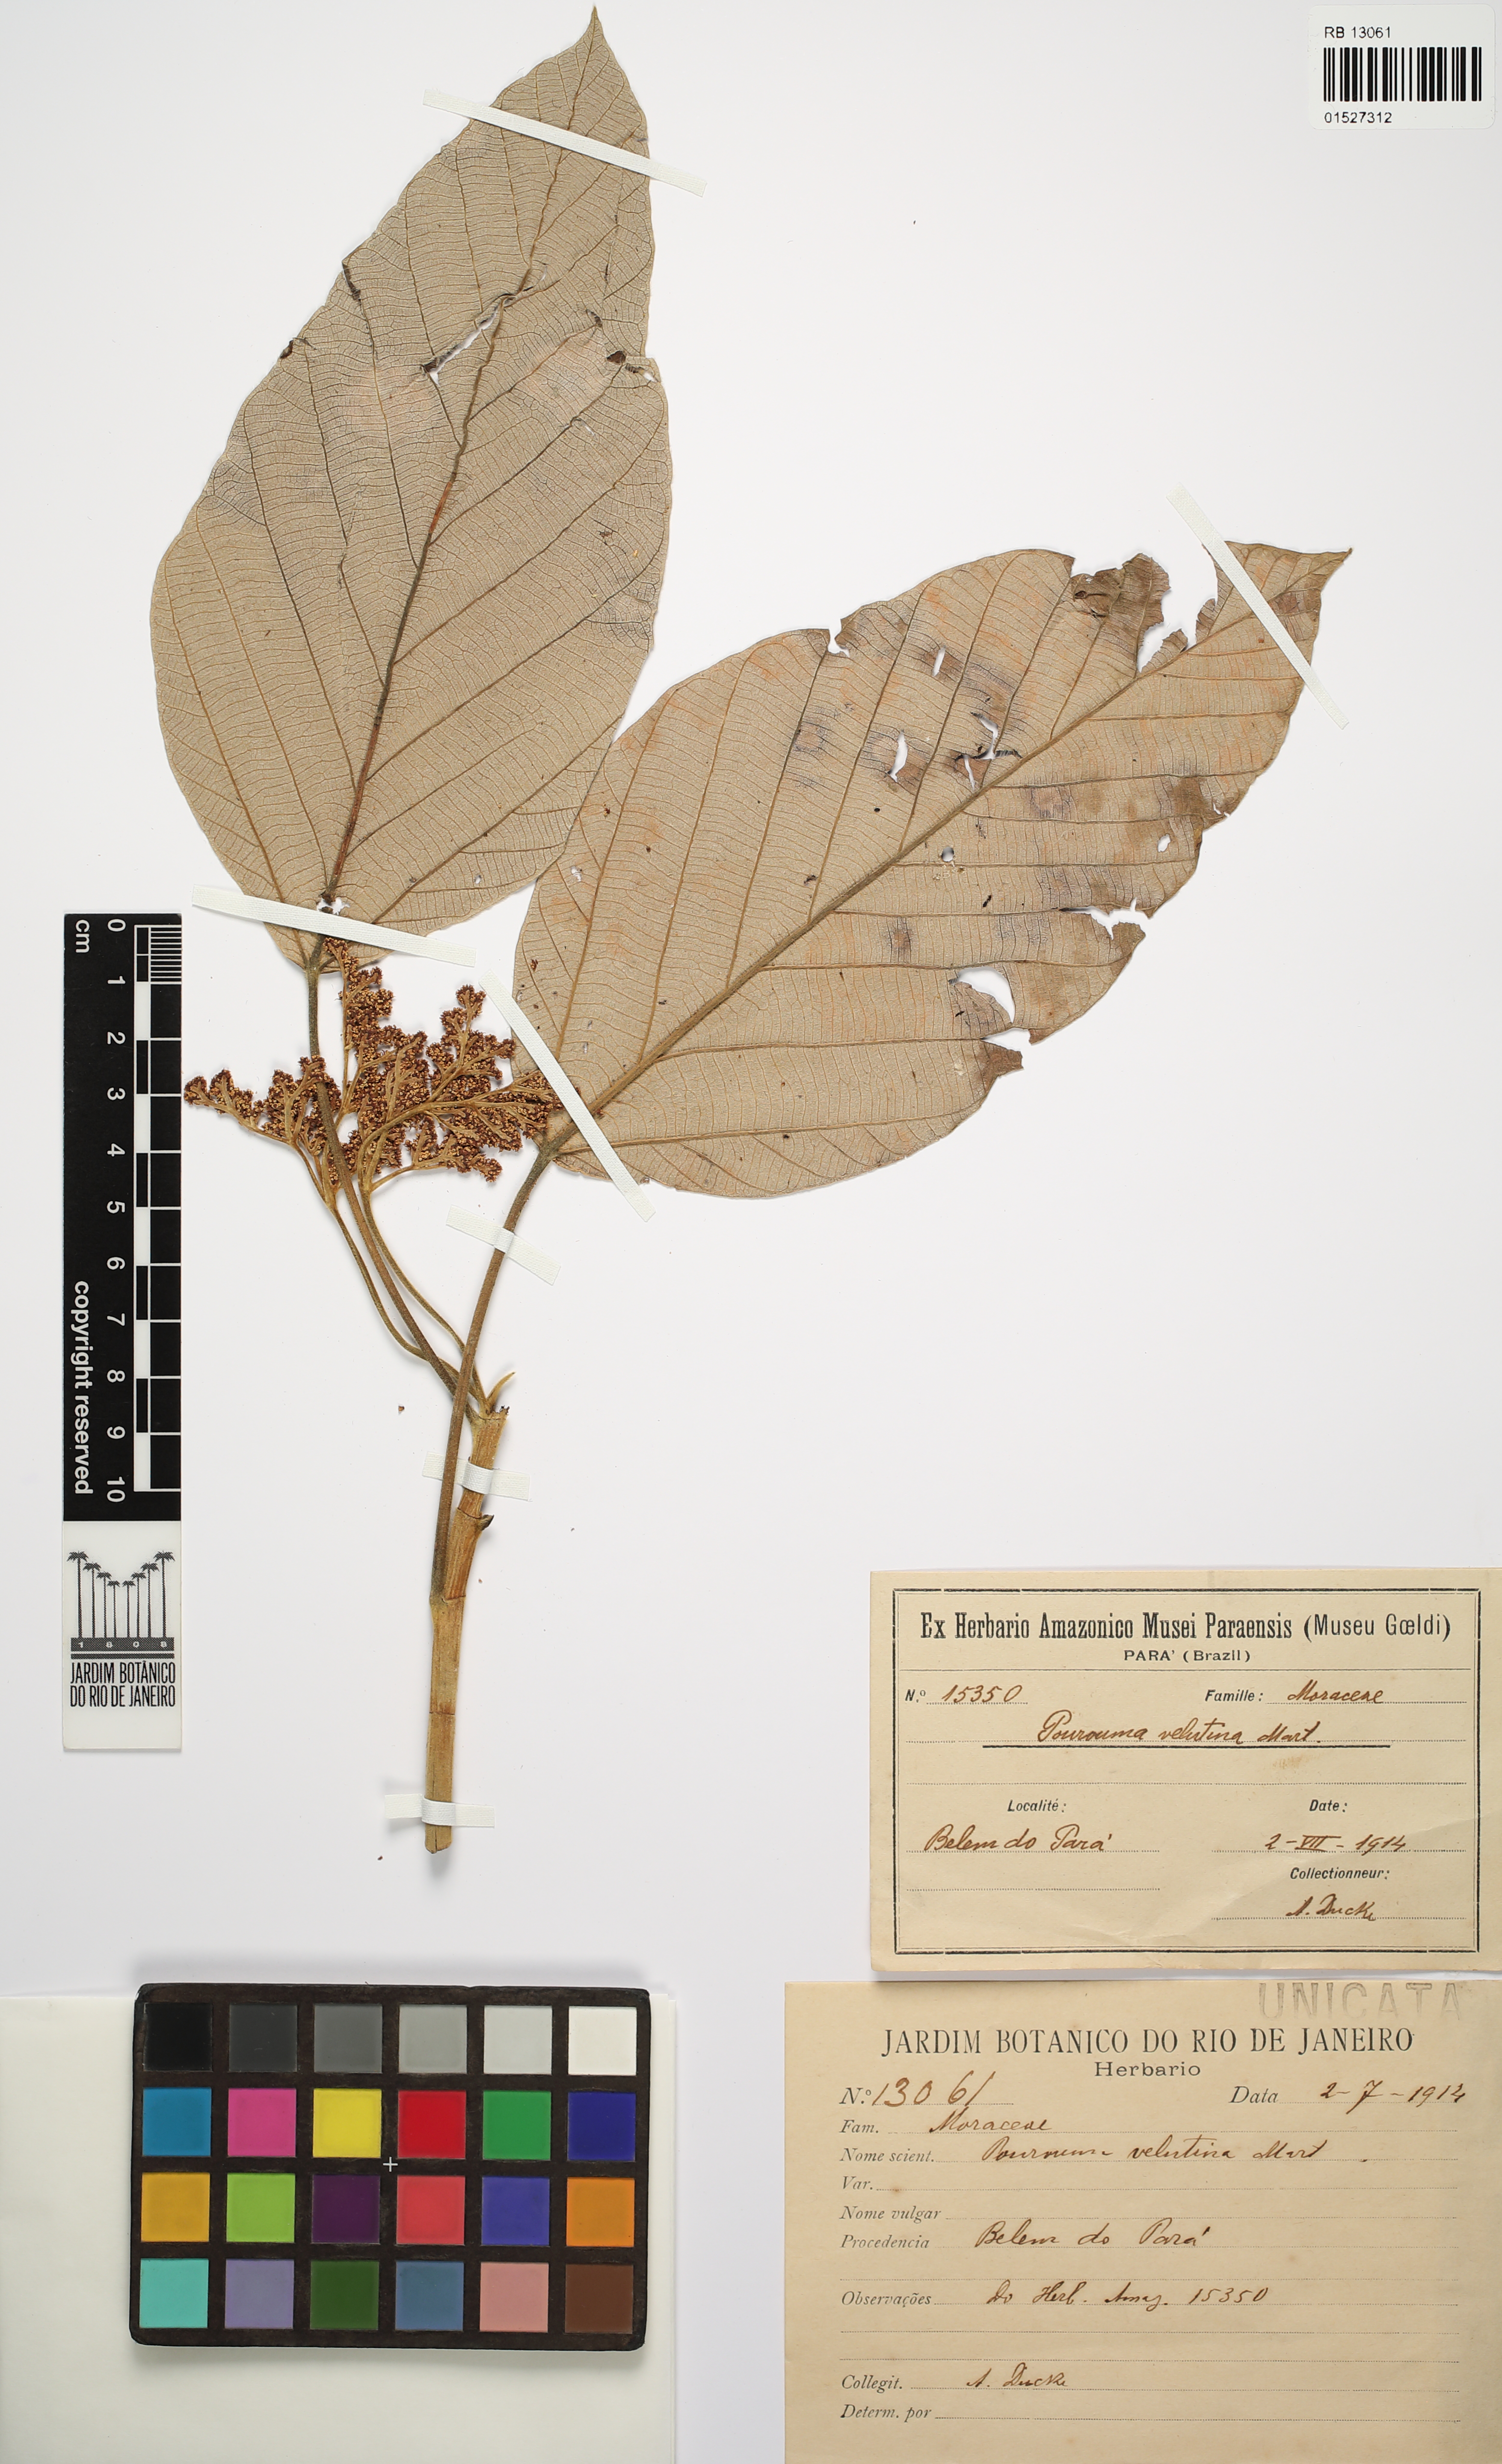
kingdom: Plantae
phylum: Tracheophyta
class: Magnoliopsida
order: Rosales
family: Urticaceae
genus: Pourouma
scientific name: Pourouma velutina
